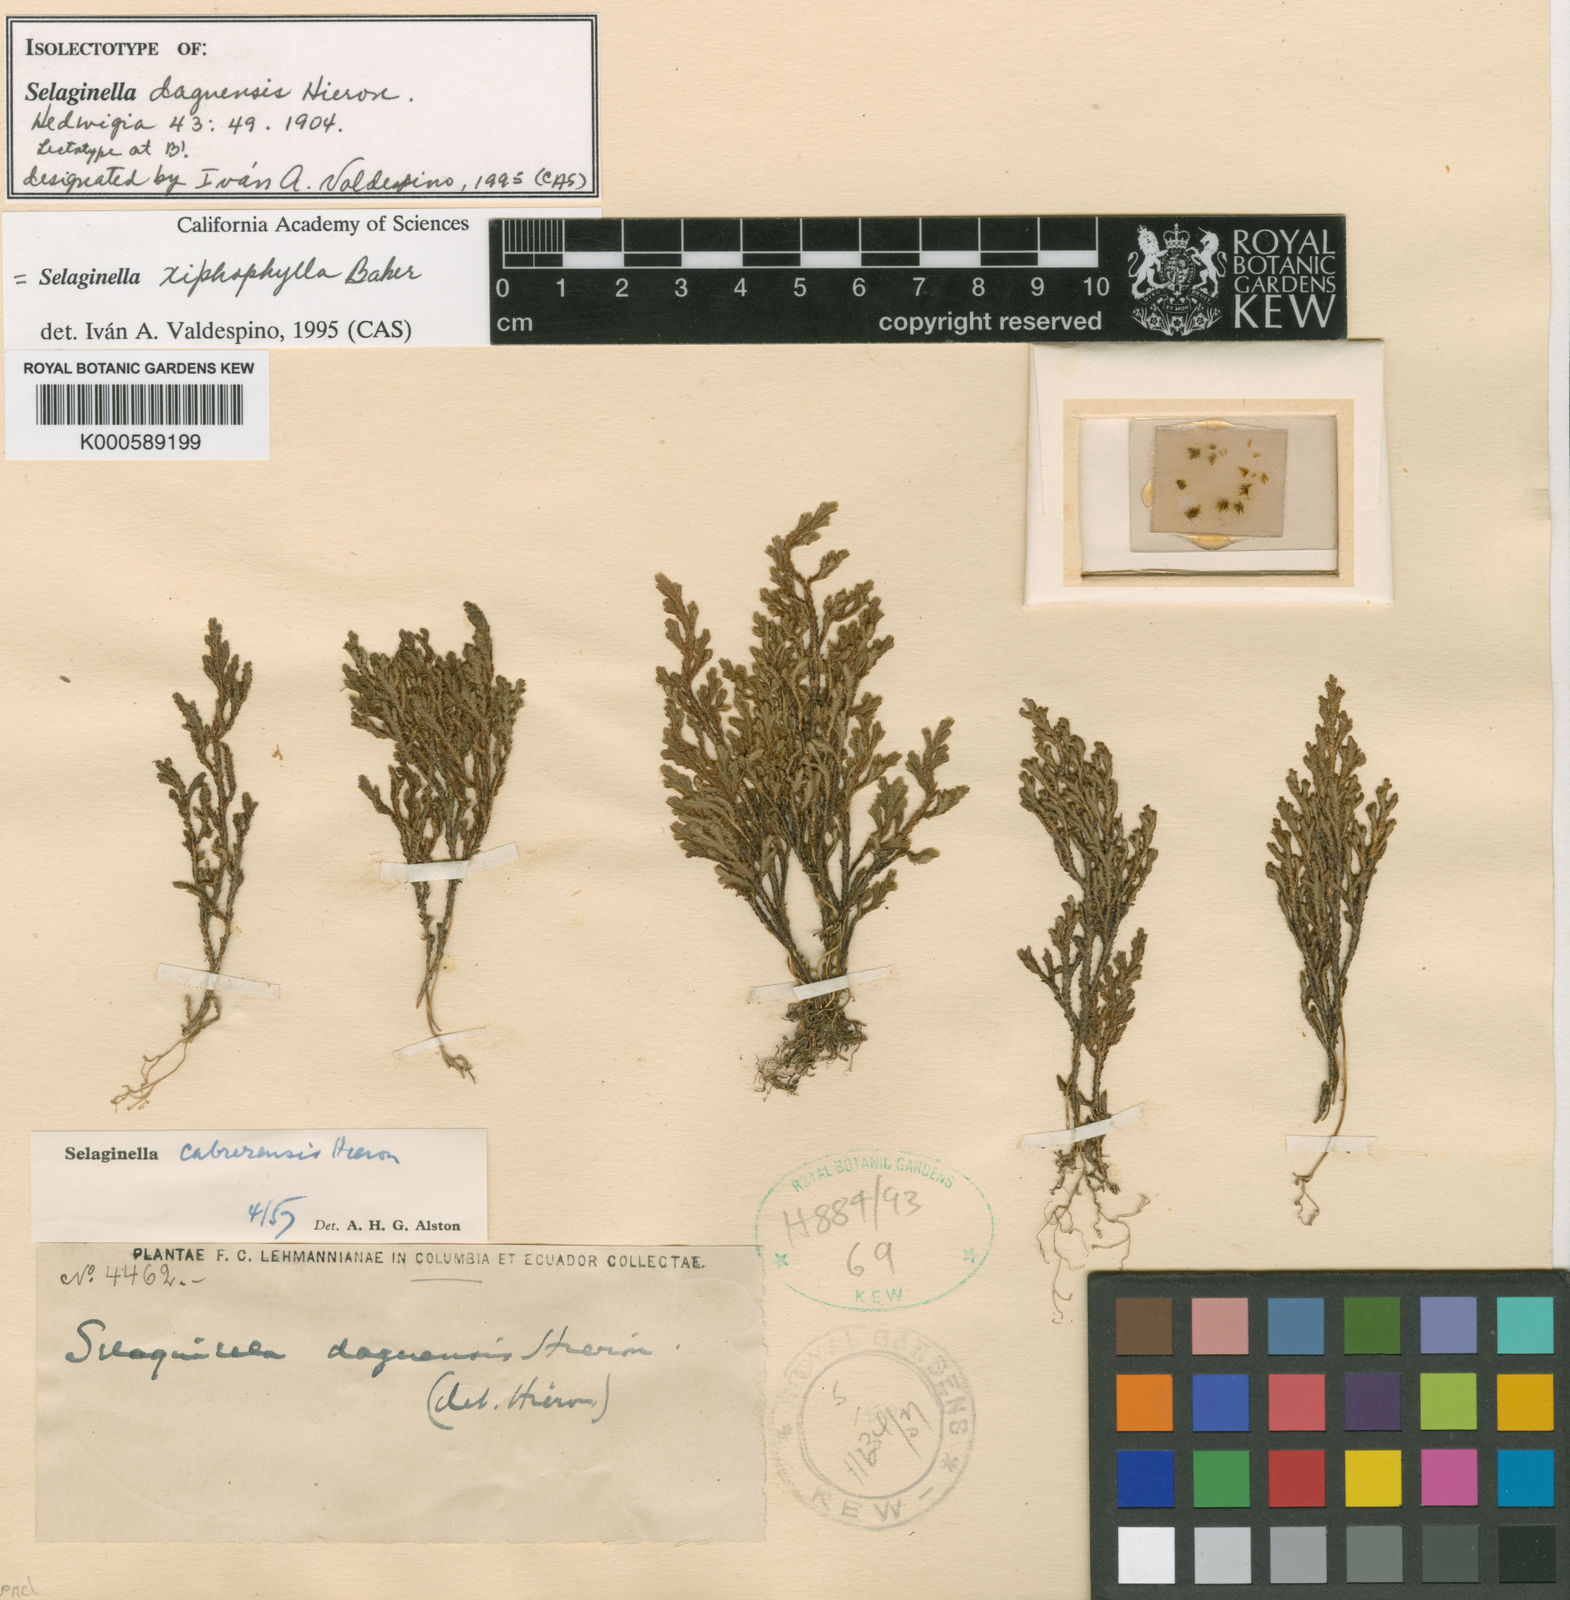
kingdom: Plantae
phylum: Tracheophyta
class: Lycopodiopsida
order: Selaginellales
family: Selaginellaceae
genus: Selaginella
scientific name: Selaginella xiphophylla
